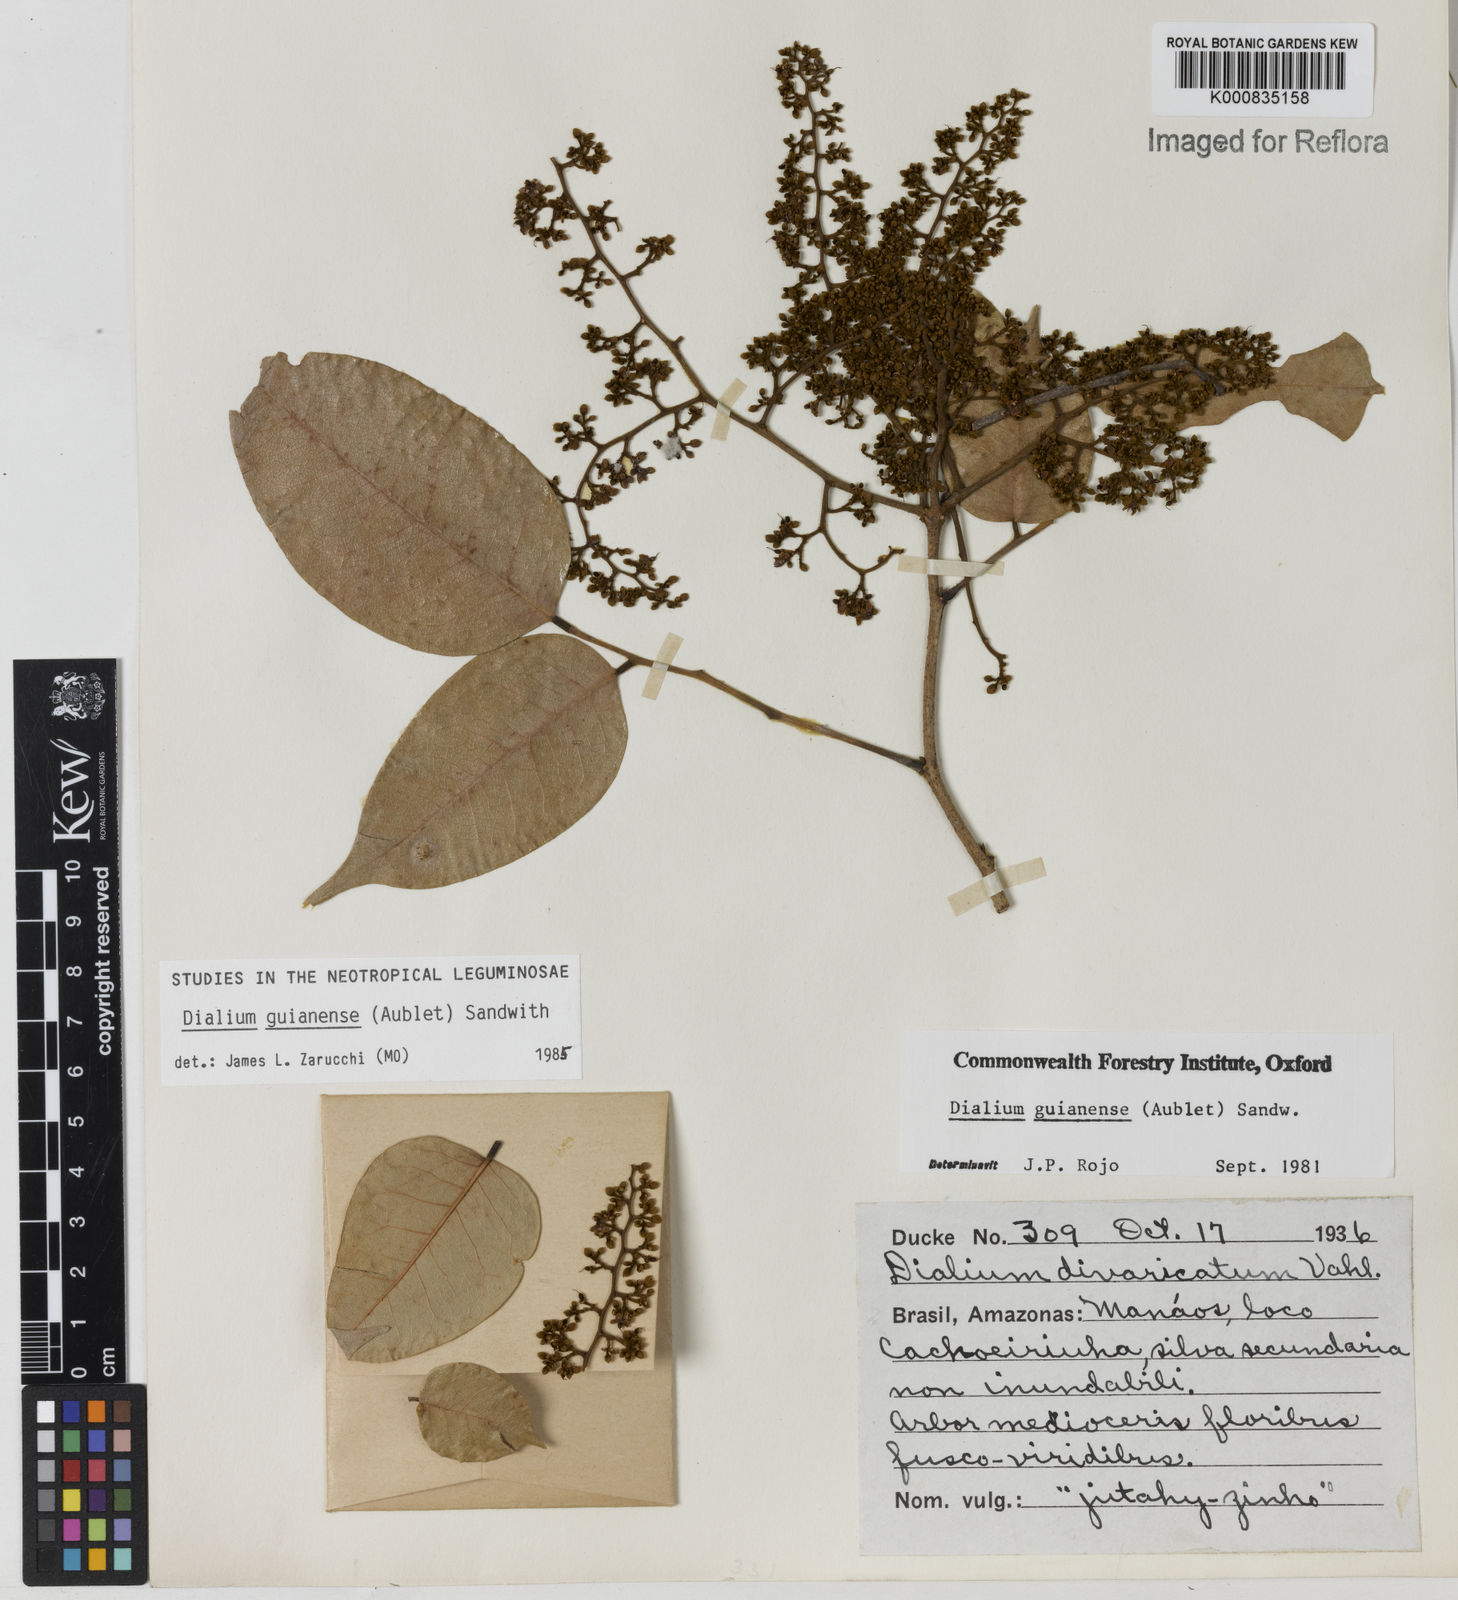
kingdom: Plantae
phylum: Tracheophyta
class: Magnoliopsida
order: Fabales
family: Fabaceae
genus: Dialium
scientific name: Dialium guianense
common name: Ironwood
